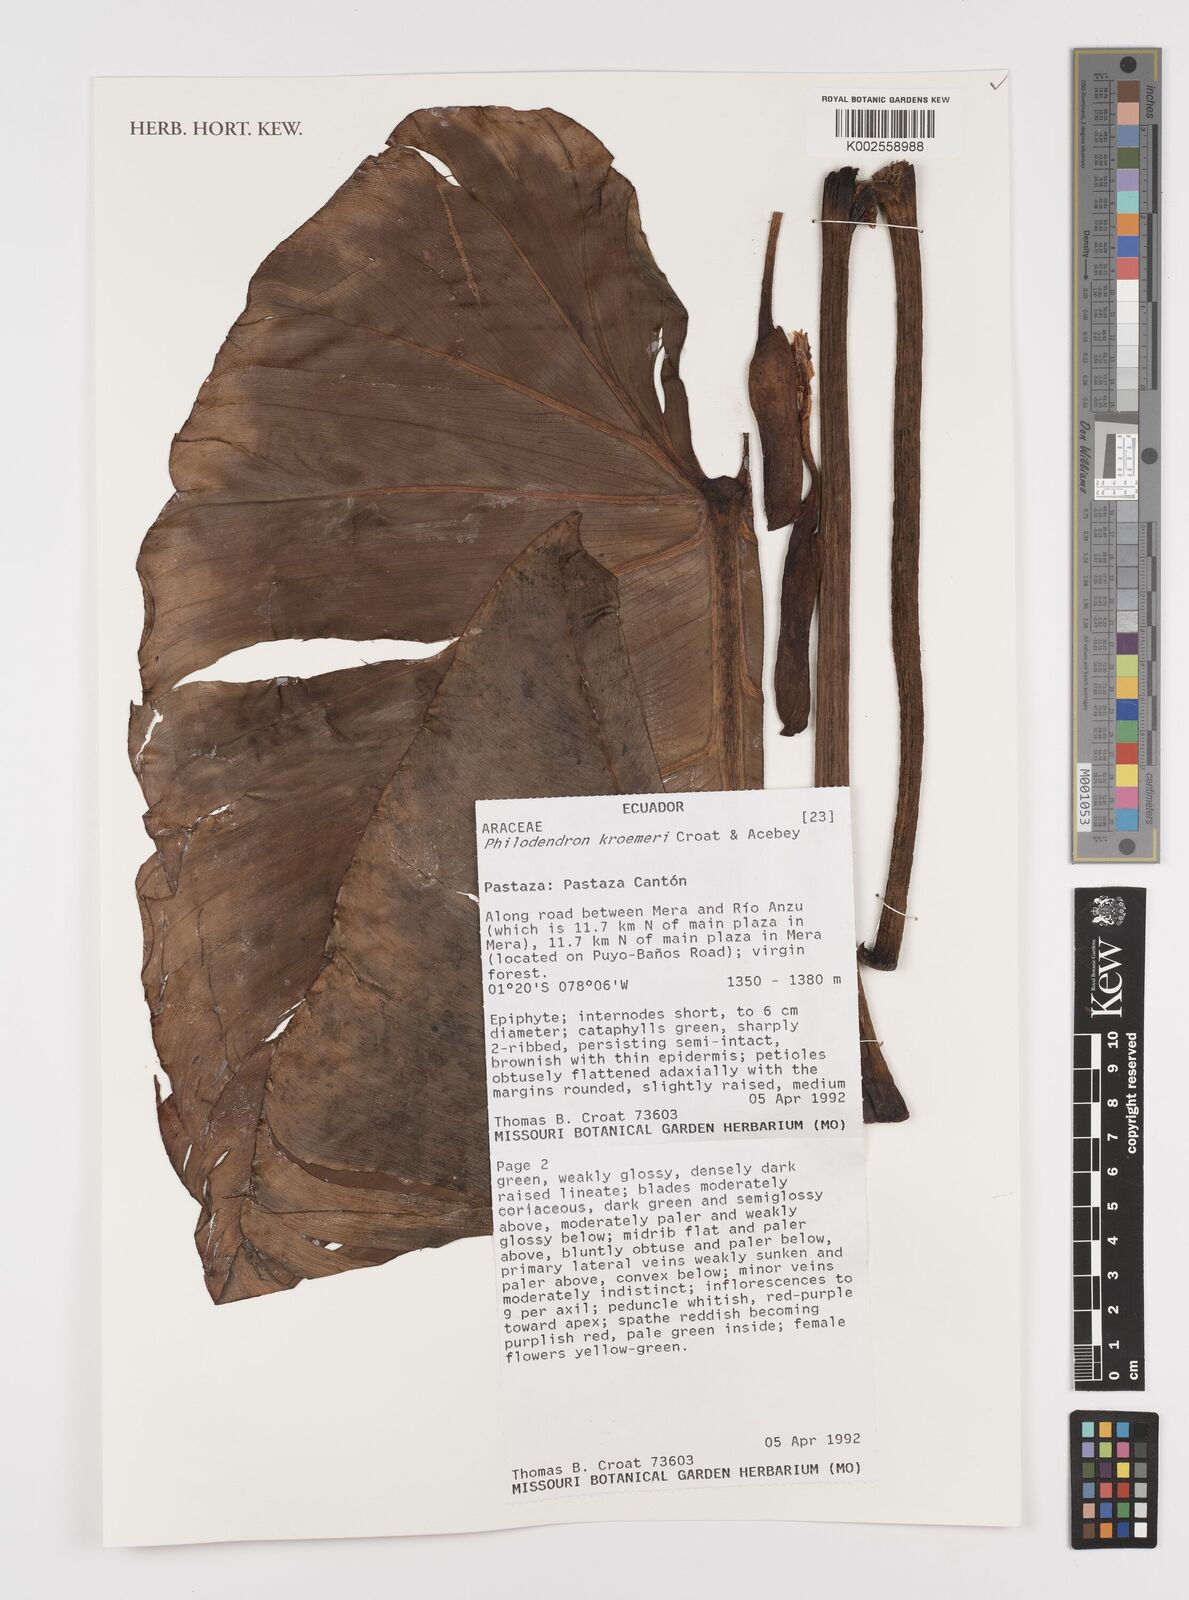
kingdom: Plantae
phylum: Tracheophyta
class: Liliopsida
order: Alismatales
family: Araceae
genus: Philodendron
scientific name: Philodendron kroemeri
